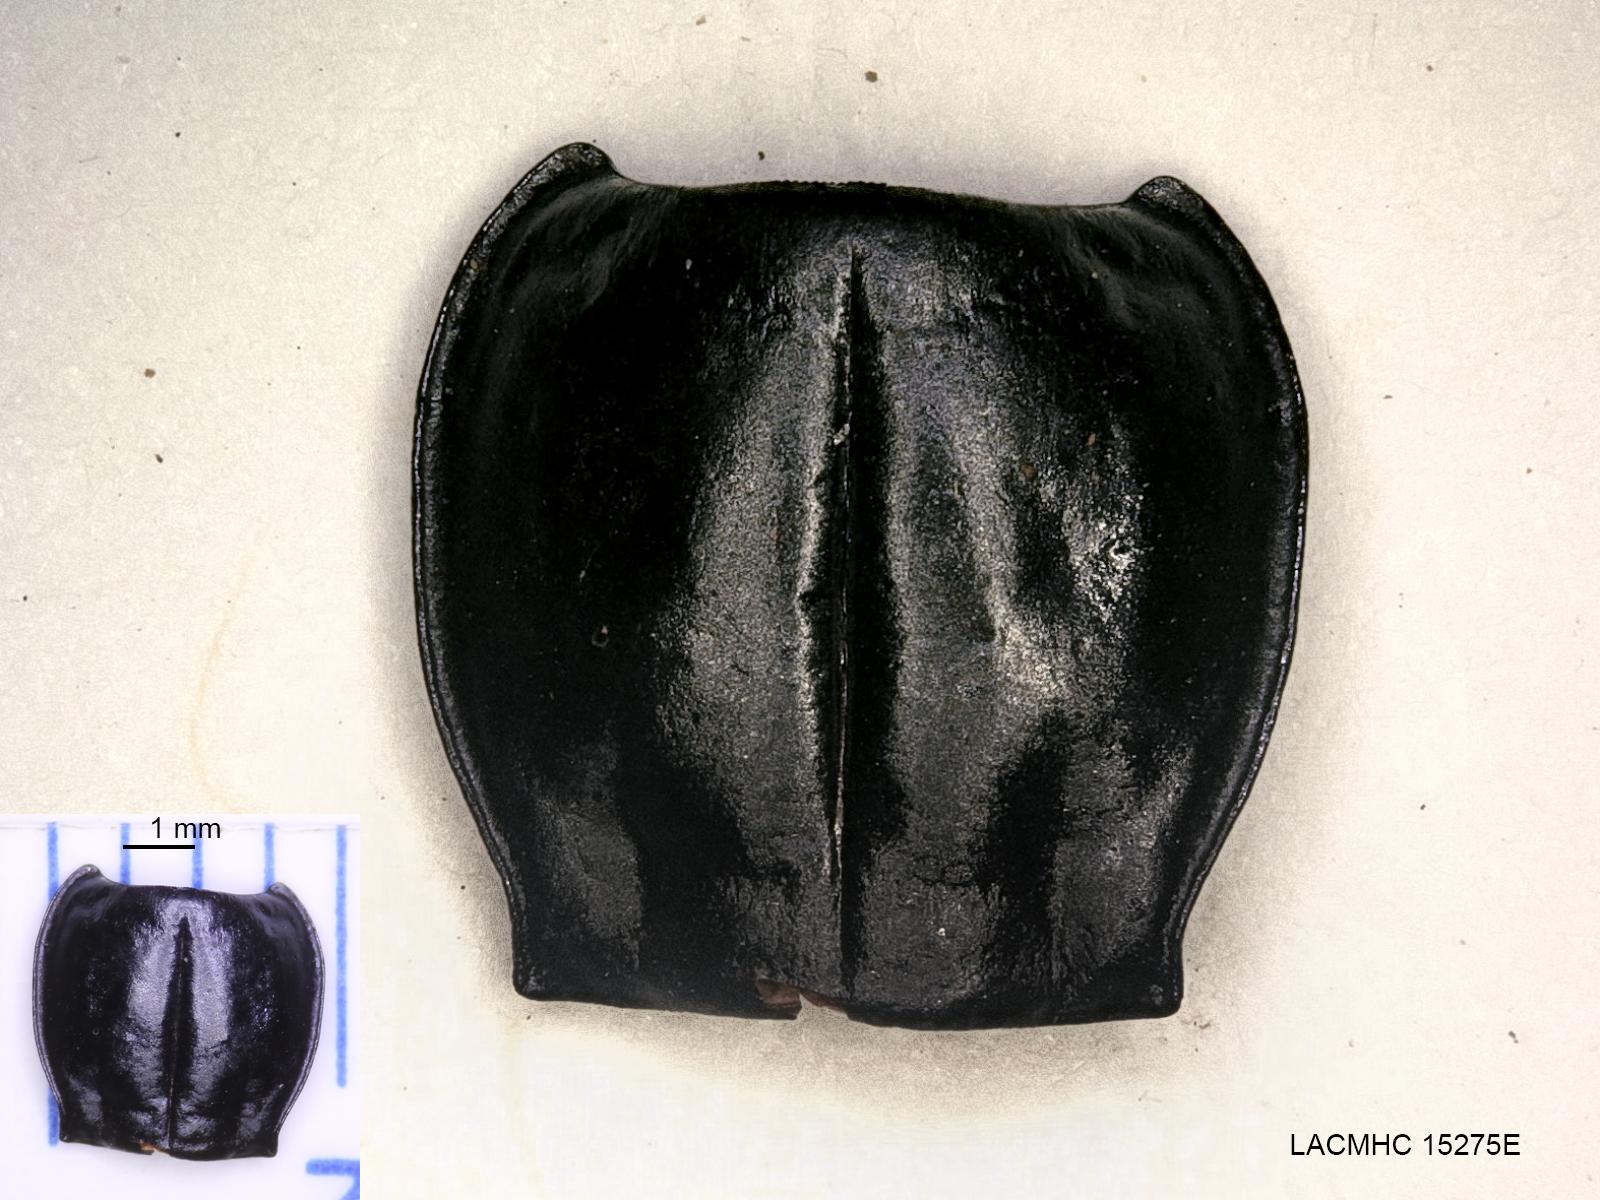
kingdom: Animalia
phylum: Arthropoda
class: Insecta
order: Coleoptera
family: Carabidae
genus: Pterostichus
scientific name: Pterostichus illustris
